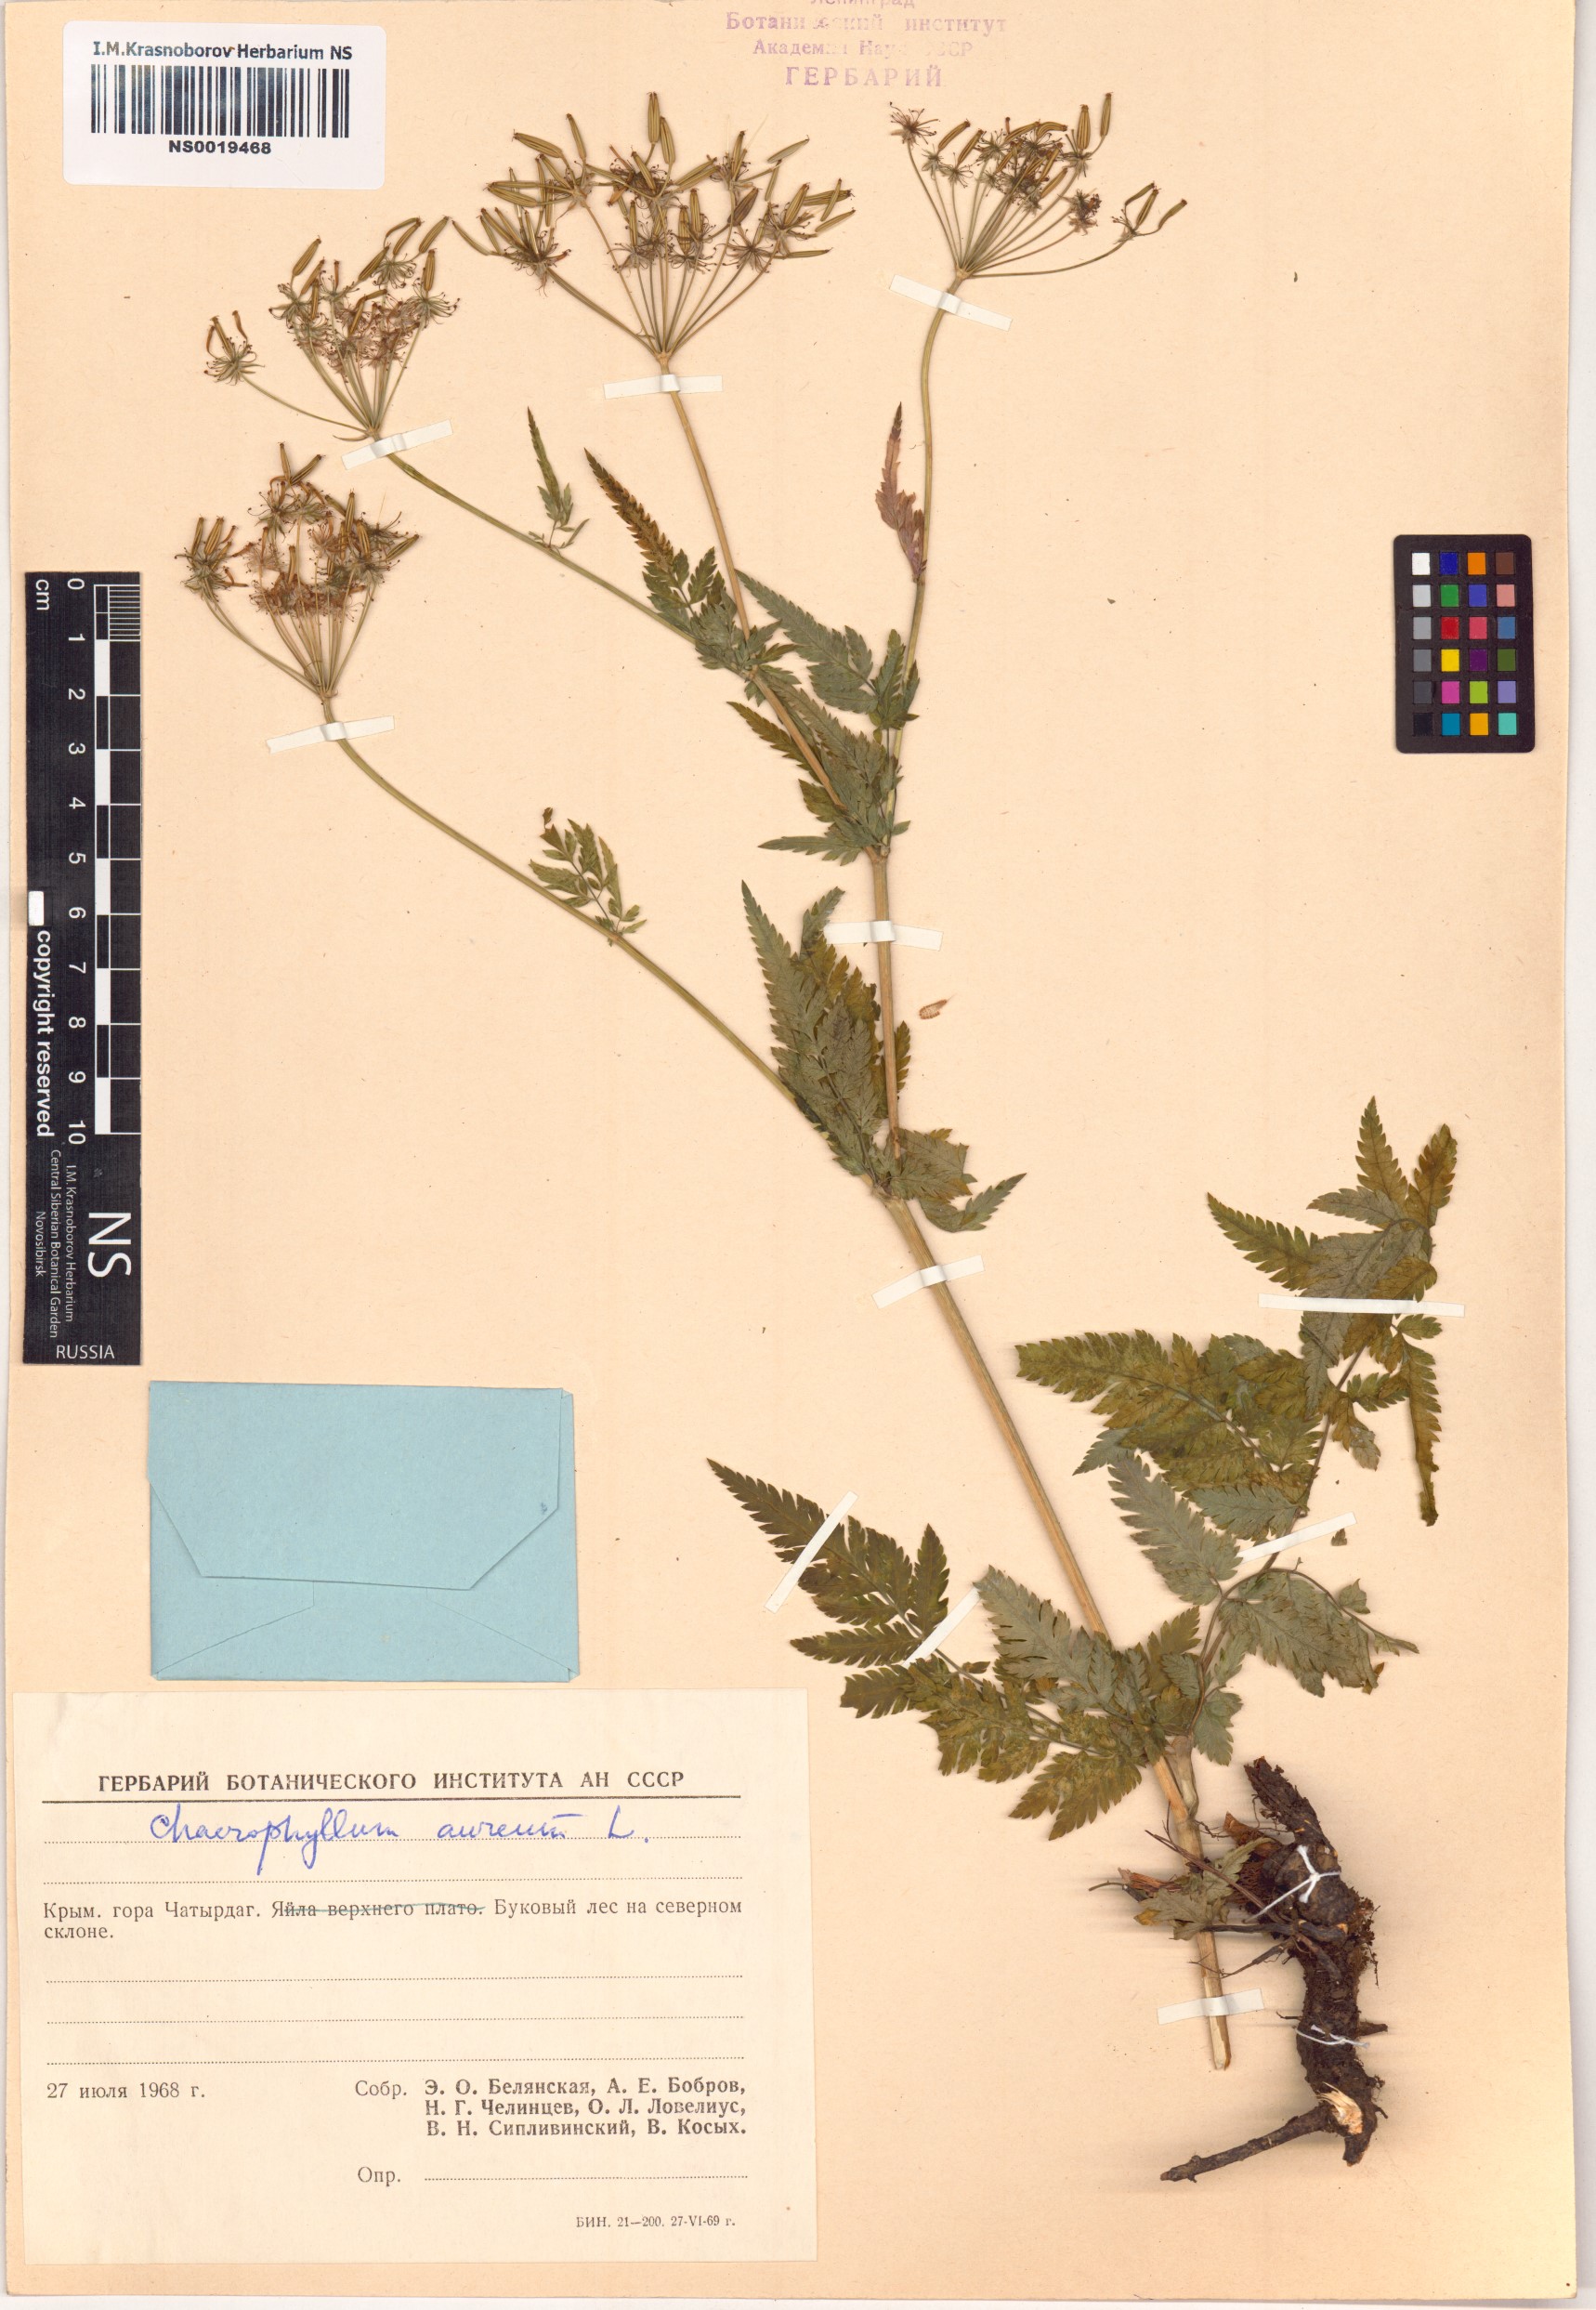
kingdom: Plantae
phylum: Tracheophyta
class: Magnoliopsida
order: Apiales
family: Apiaceae
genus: Chaerophyllum
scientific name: Chaerophyllum aureum
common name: Golden chervil
